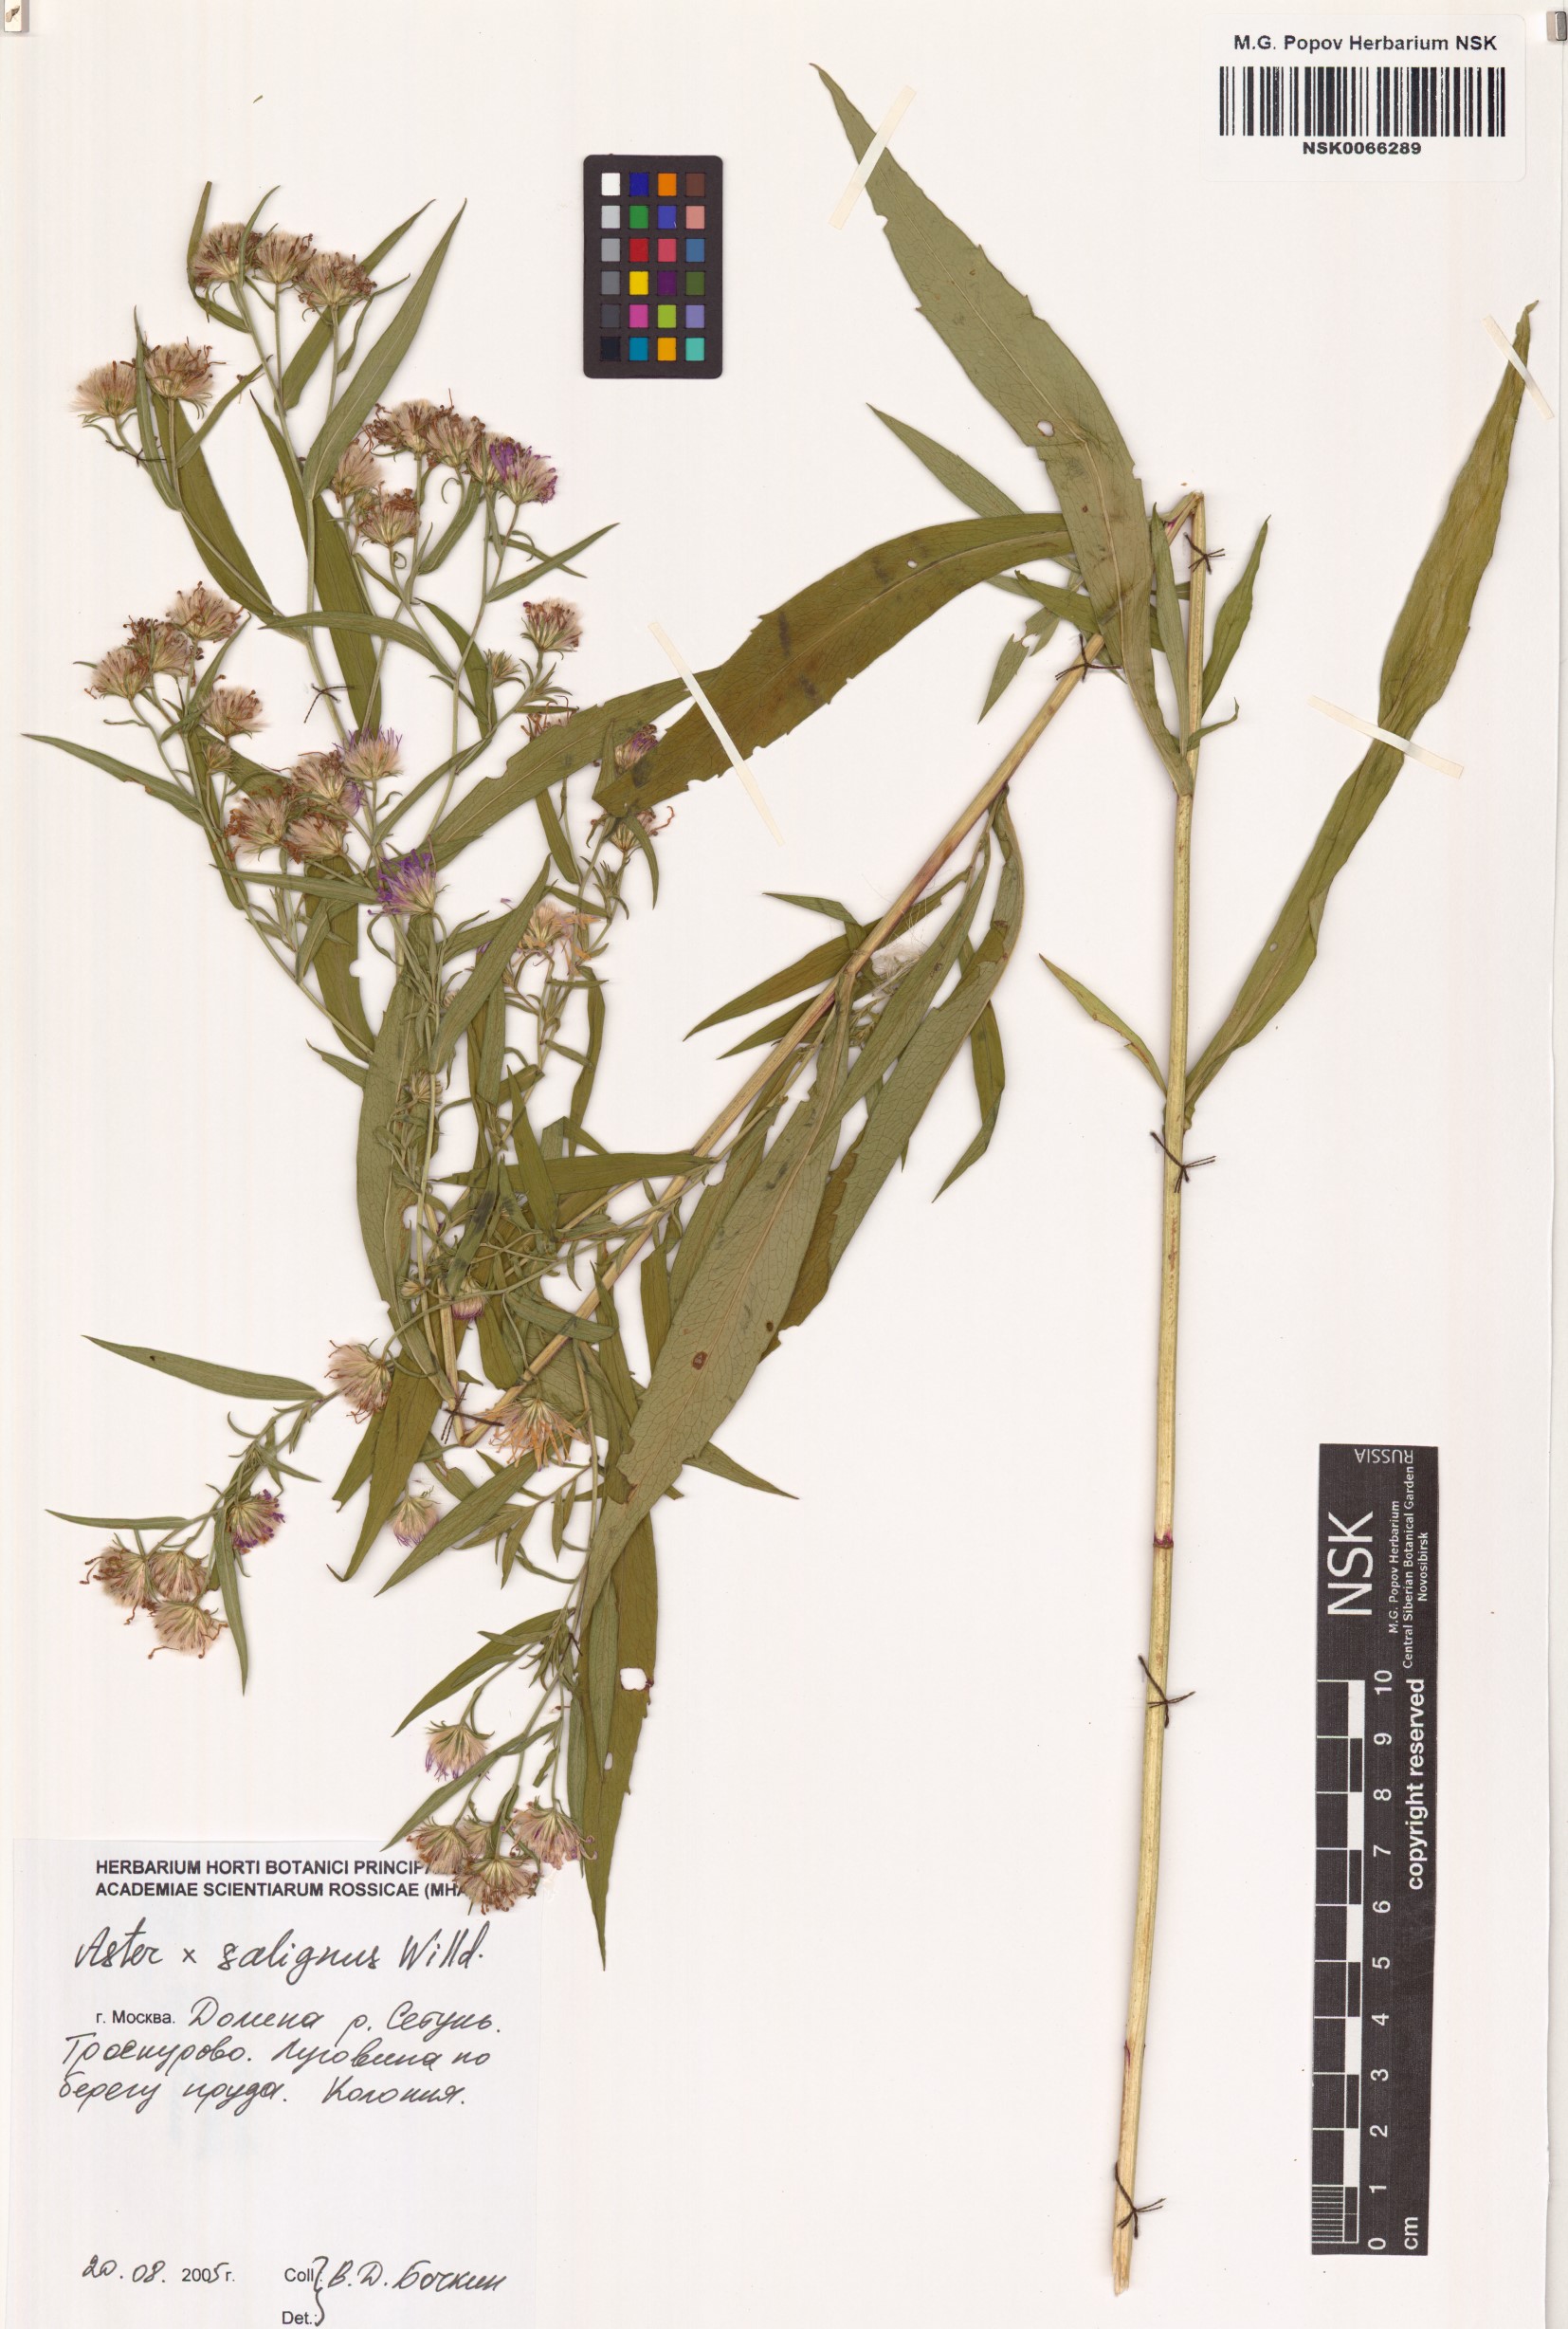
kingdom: Plantae
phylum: Tracheophyta
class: Magnoliopsida
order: Asterales
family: Asteraceae
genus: Symphyotrichum
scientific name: Symphyotrichum salignum
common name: Common michaelmas daisy
